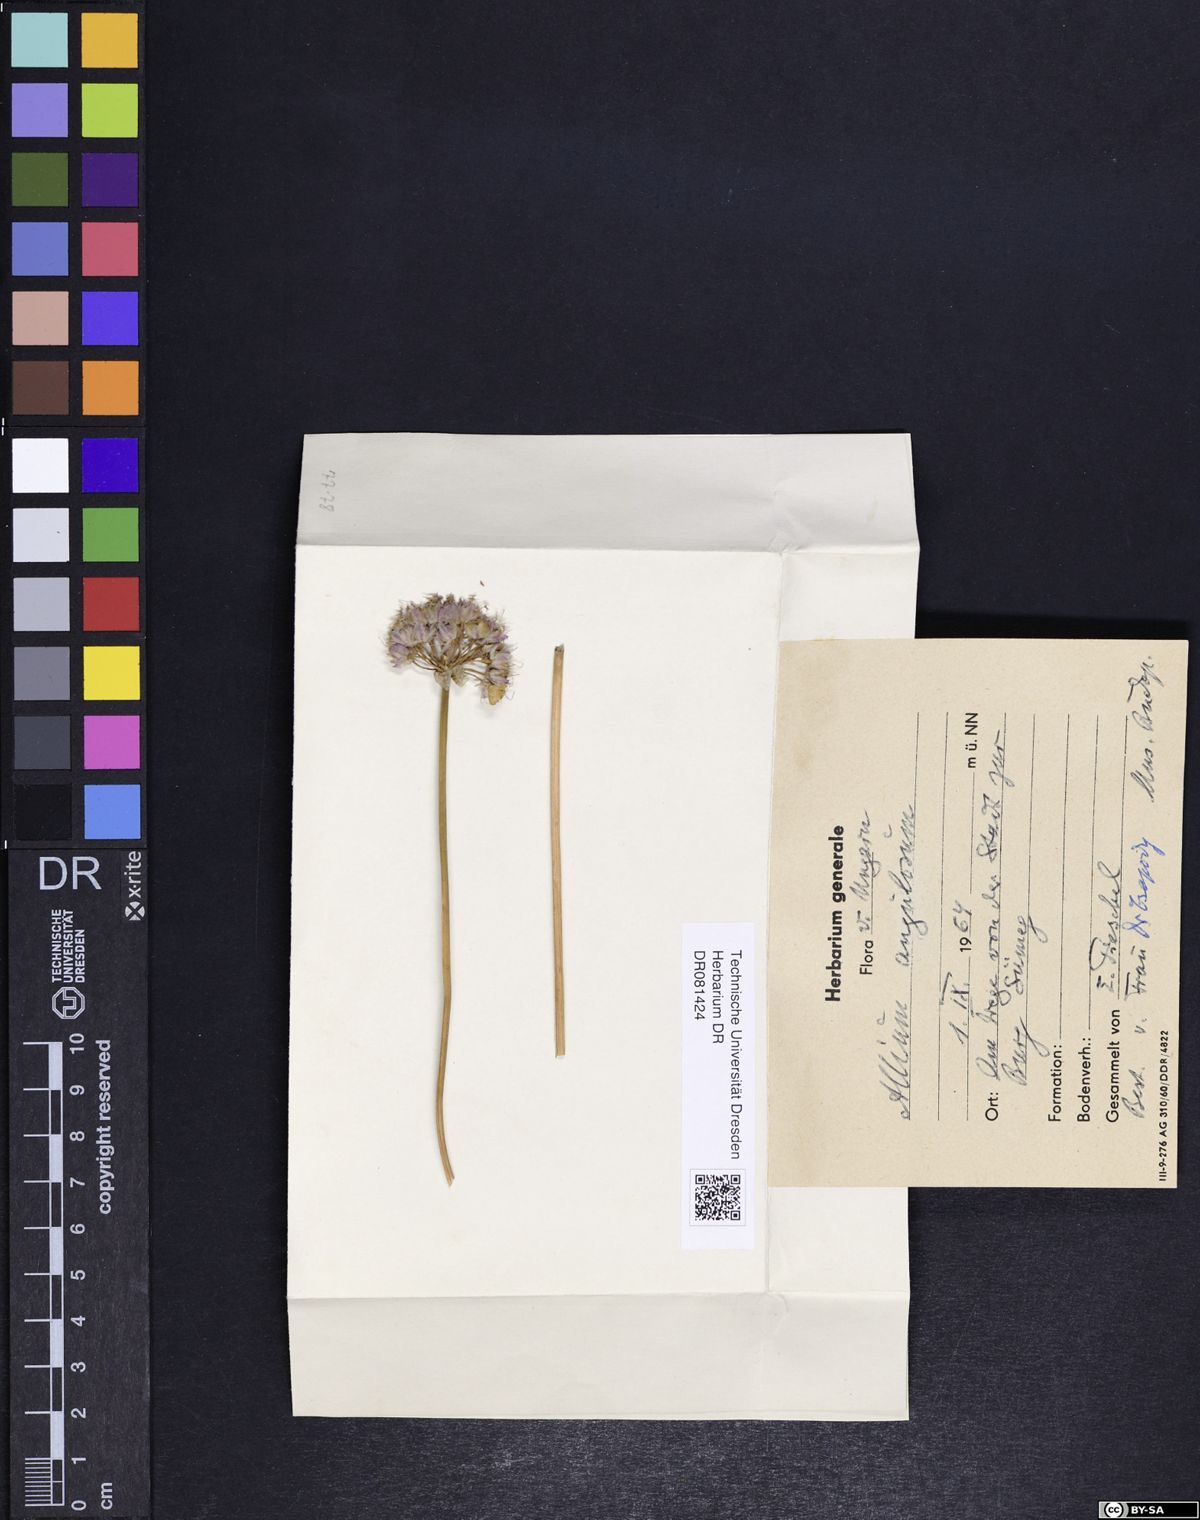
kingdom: Plantae
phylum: Tracheophyta
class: Liliopsida
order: Asparagales
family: Amaryllidaceae
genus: Allium
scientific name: Allium angulosum
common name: Mouse garlic
